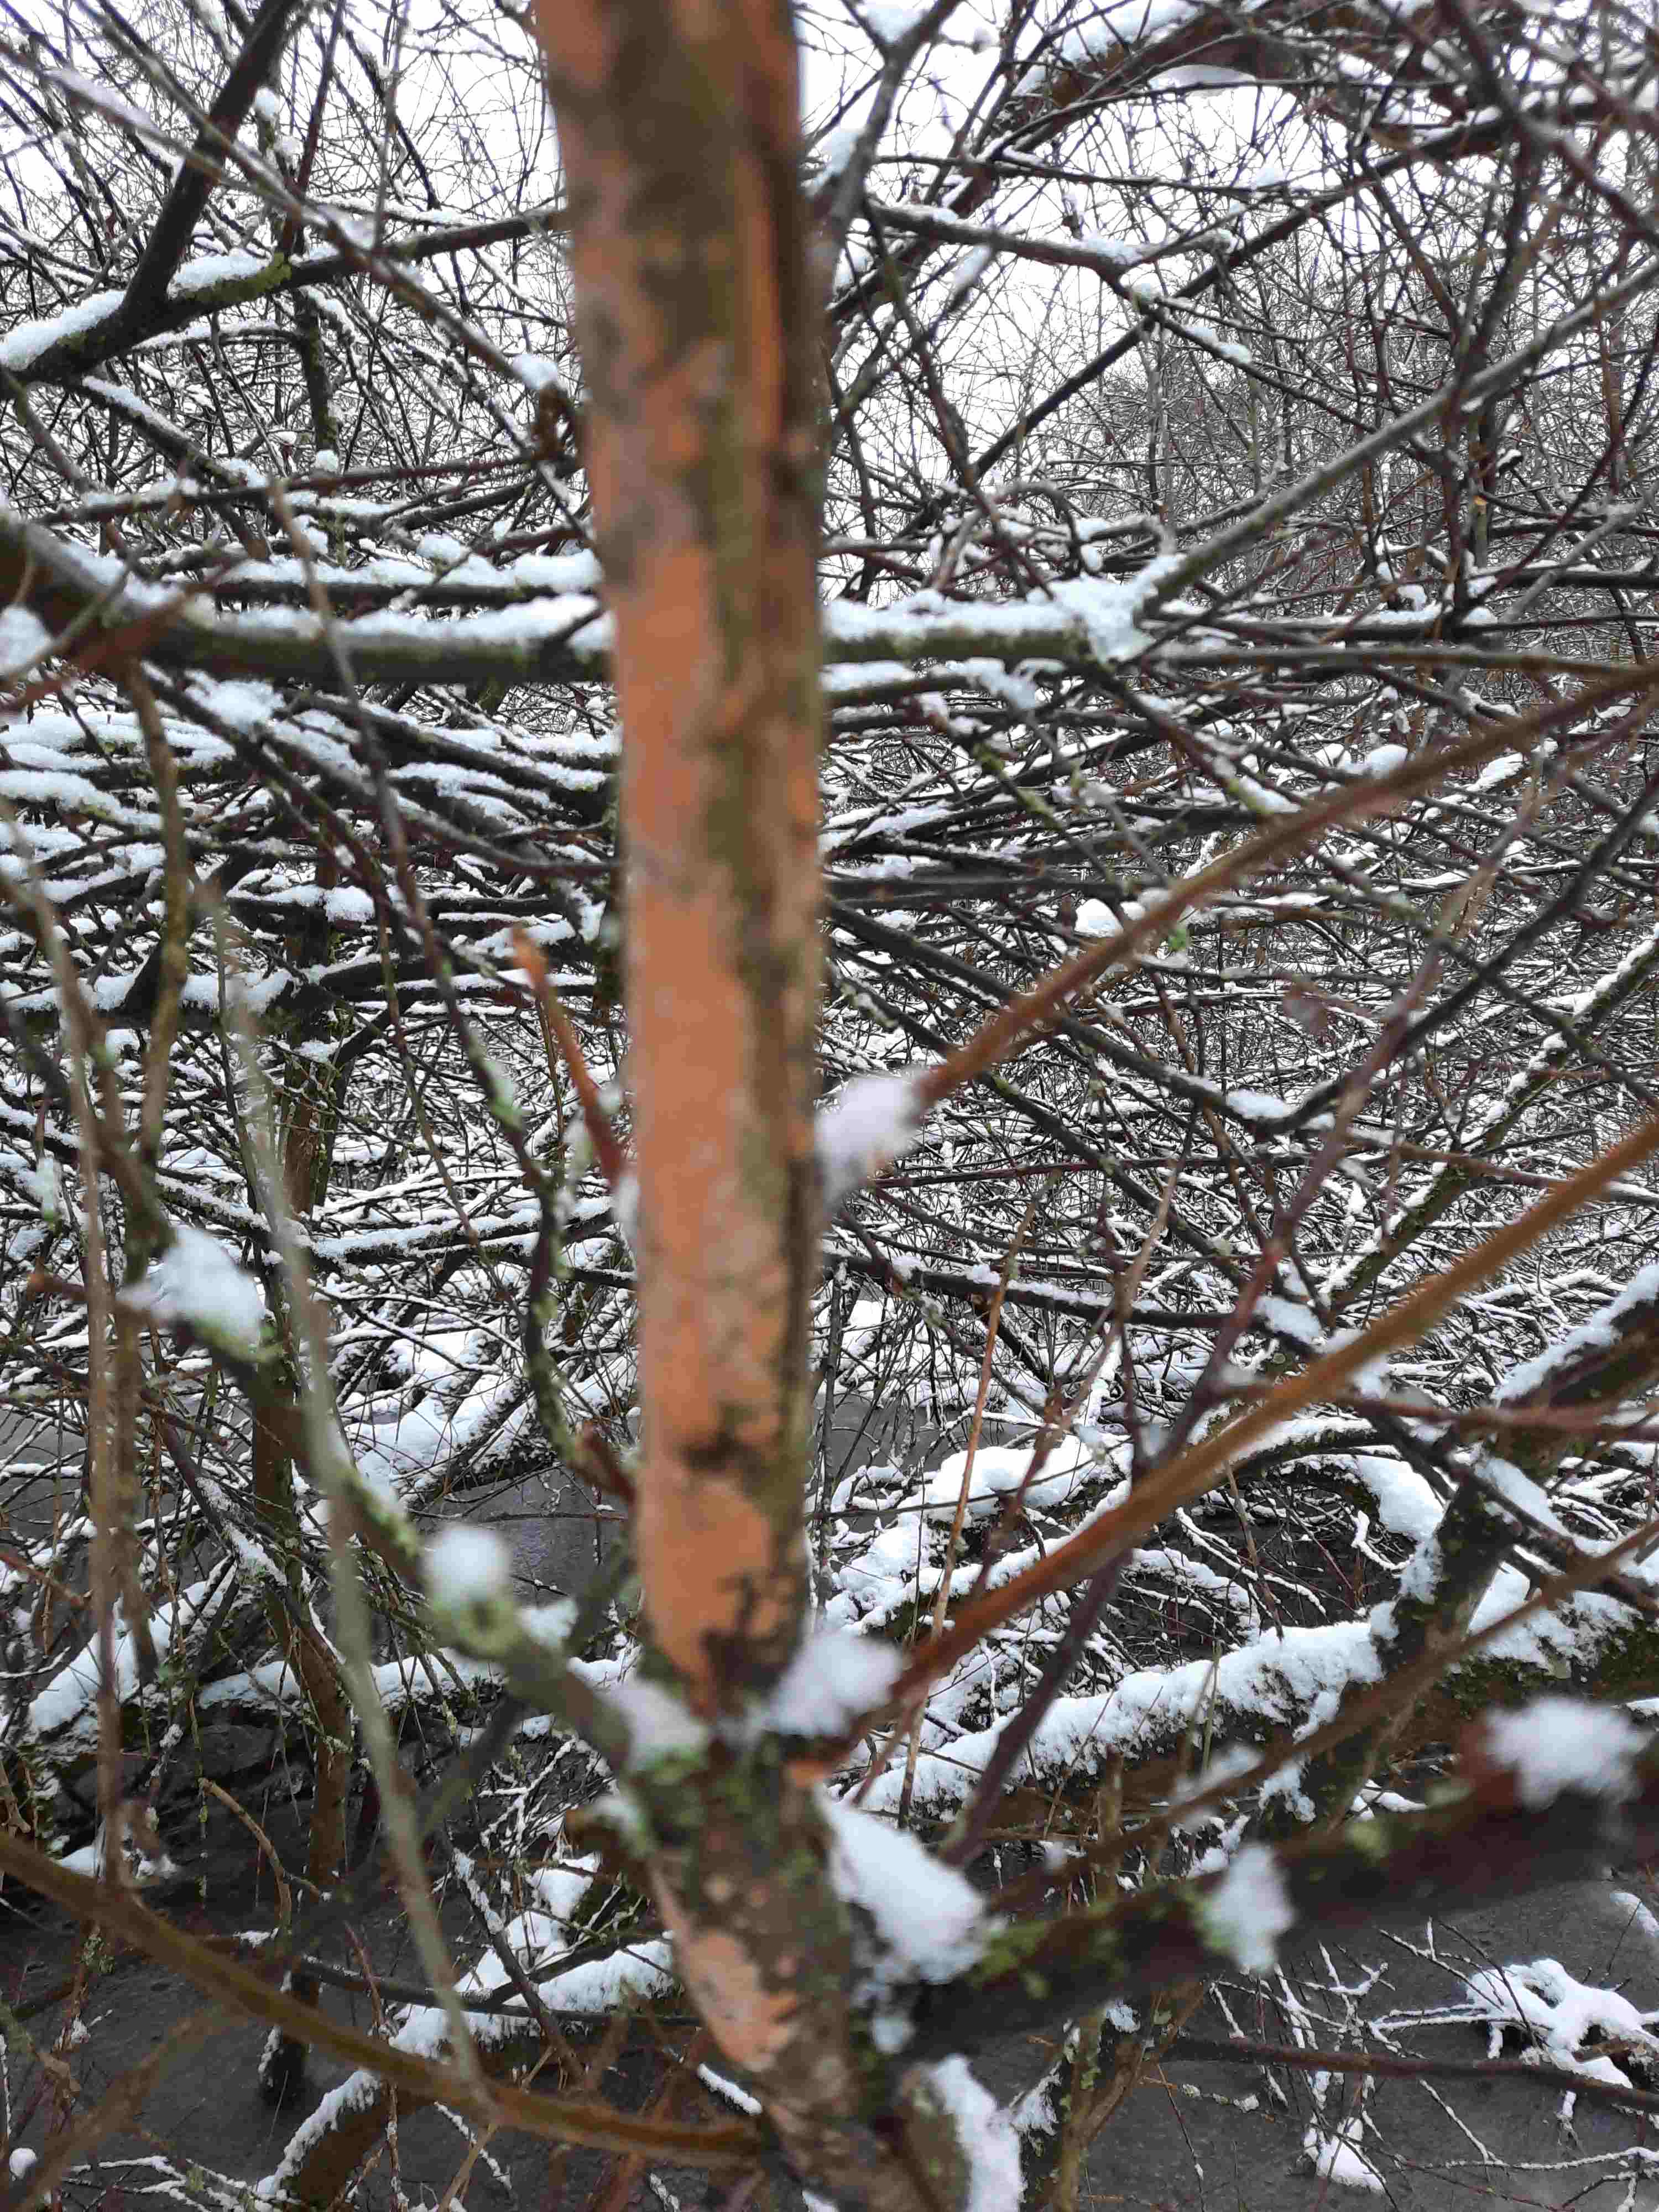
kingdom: Fungi
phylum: Basidiomycota
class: Agaricomycetes
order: Russulales
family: Peniophoraceae
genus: Peniophora
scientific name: Peniophora incarnata
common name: laksefarvet voksskind
